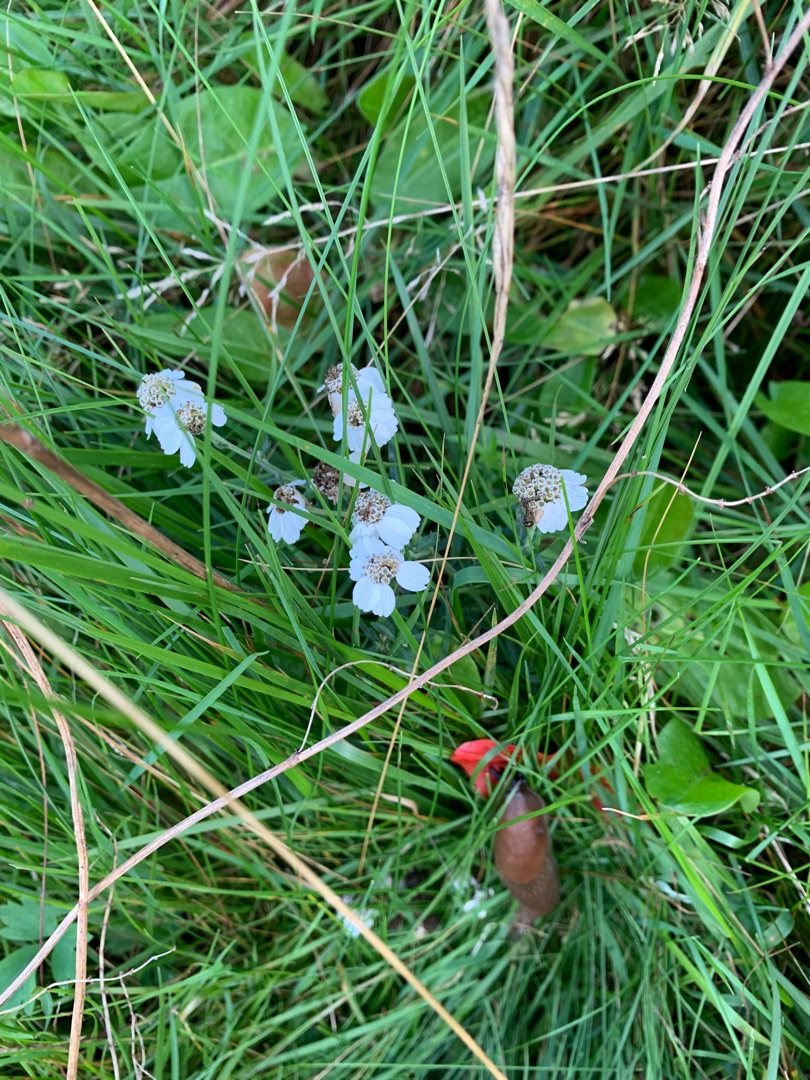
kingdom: Plantae
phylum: Tracheophyta
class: Magnoliopsida
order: Asterales
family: Asteraceae
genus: Achillea
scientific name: Achillea ptarmica
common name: Nyse-røllike
